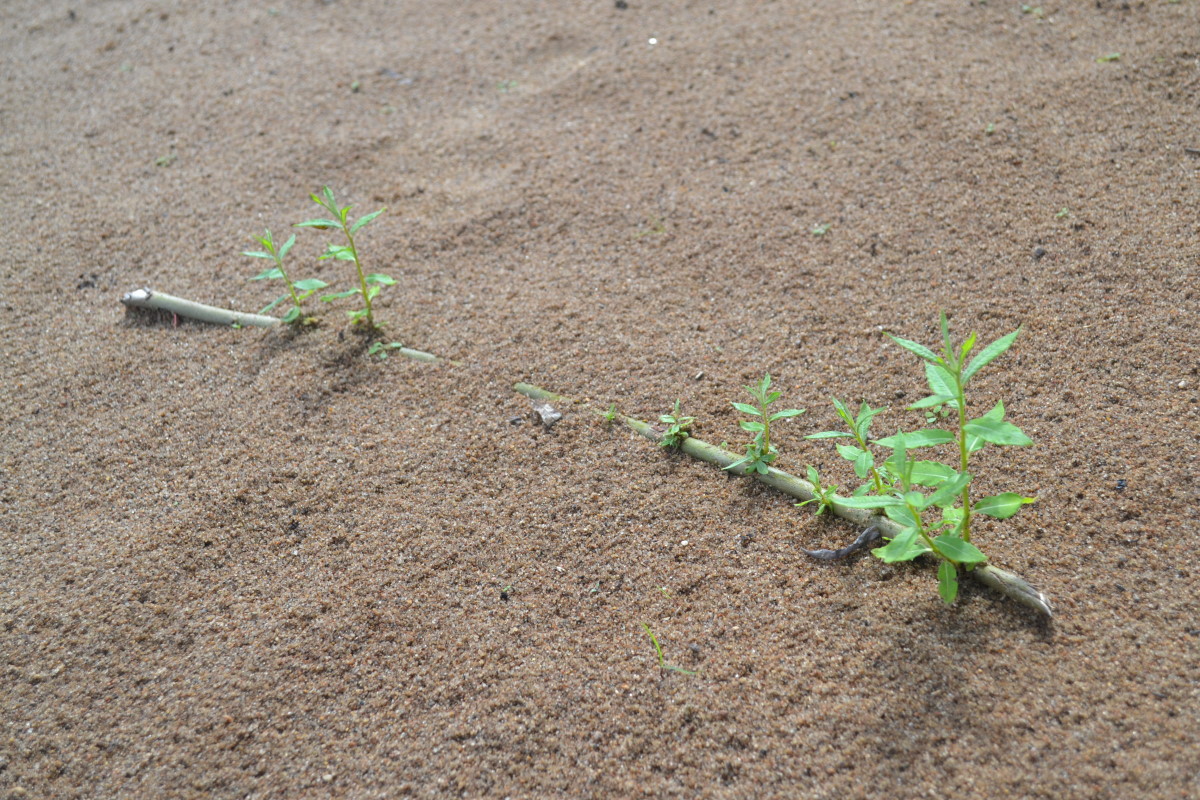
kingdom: Plantae
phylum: Tracheophyta
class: Magnoliopsida
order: Malpighiales
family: Salicaceae
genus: Salix
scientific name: Salix
